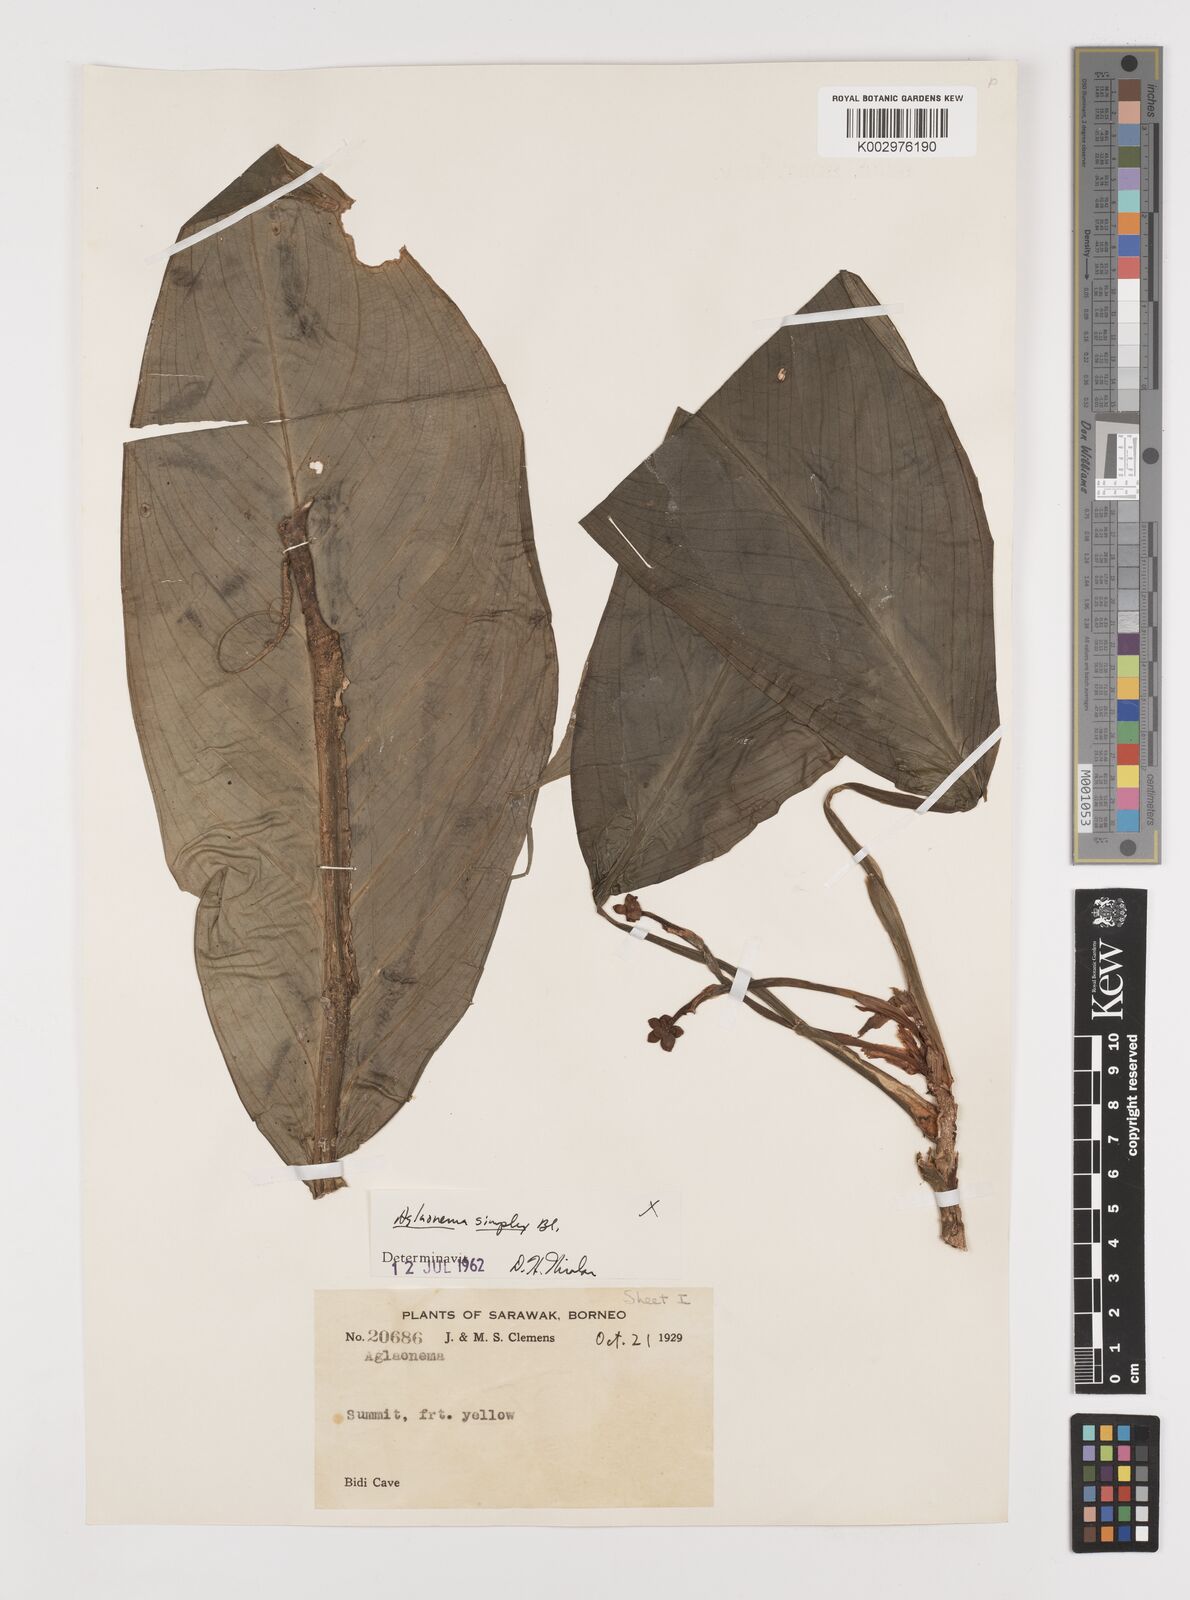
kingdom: Plantae
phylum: Tracheophyta
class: Liliopsida
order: Alismatales
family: Araceae
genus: Aglaonema
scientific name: Aglaonema simplex
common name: Malayan-sword
